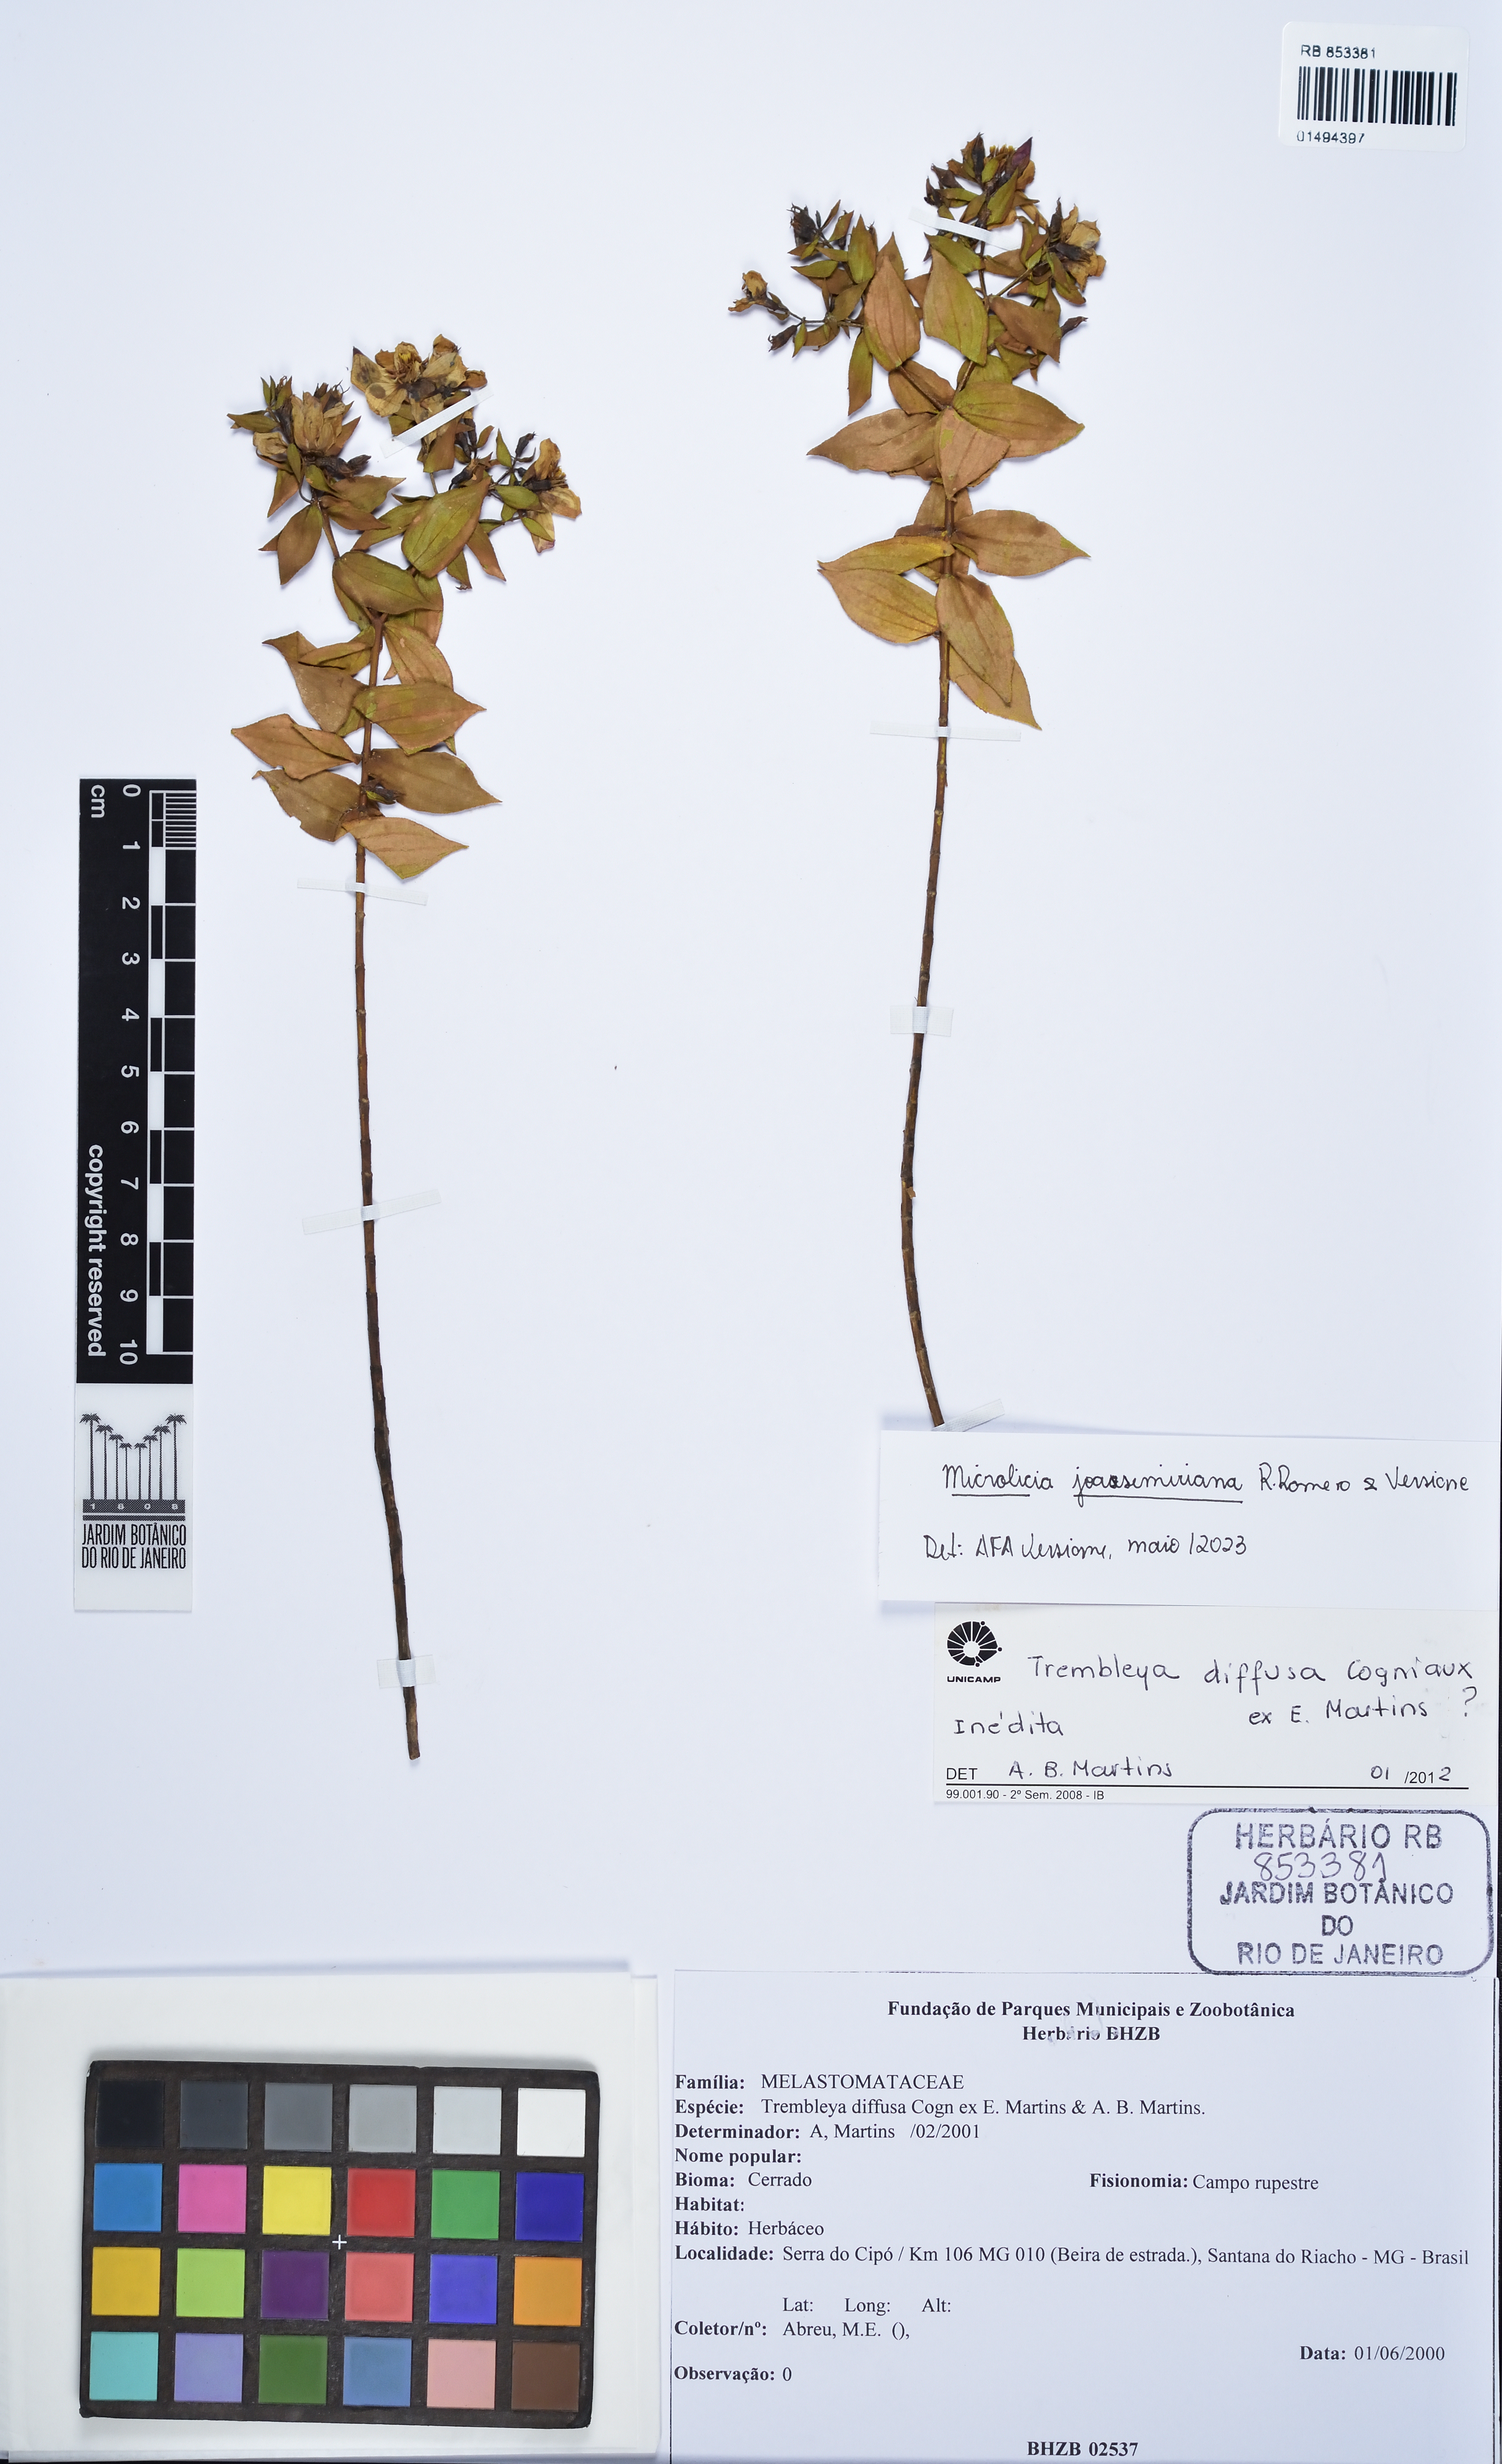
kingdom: Plantae
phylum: Tracheophyta
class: Magnoliopsida
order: Myrtales
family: Melastomataceae
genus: Microlicia
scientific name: Microlicia joaosemiriana
